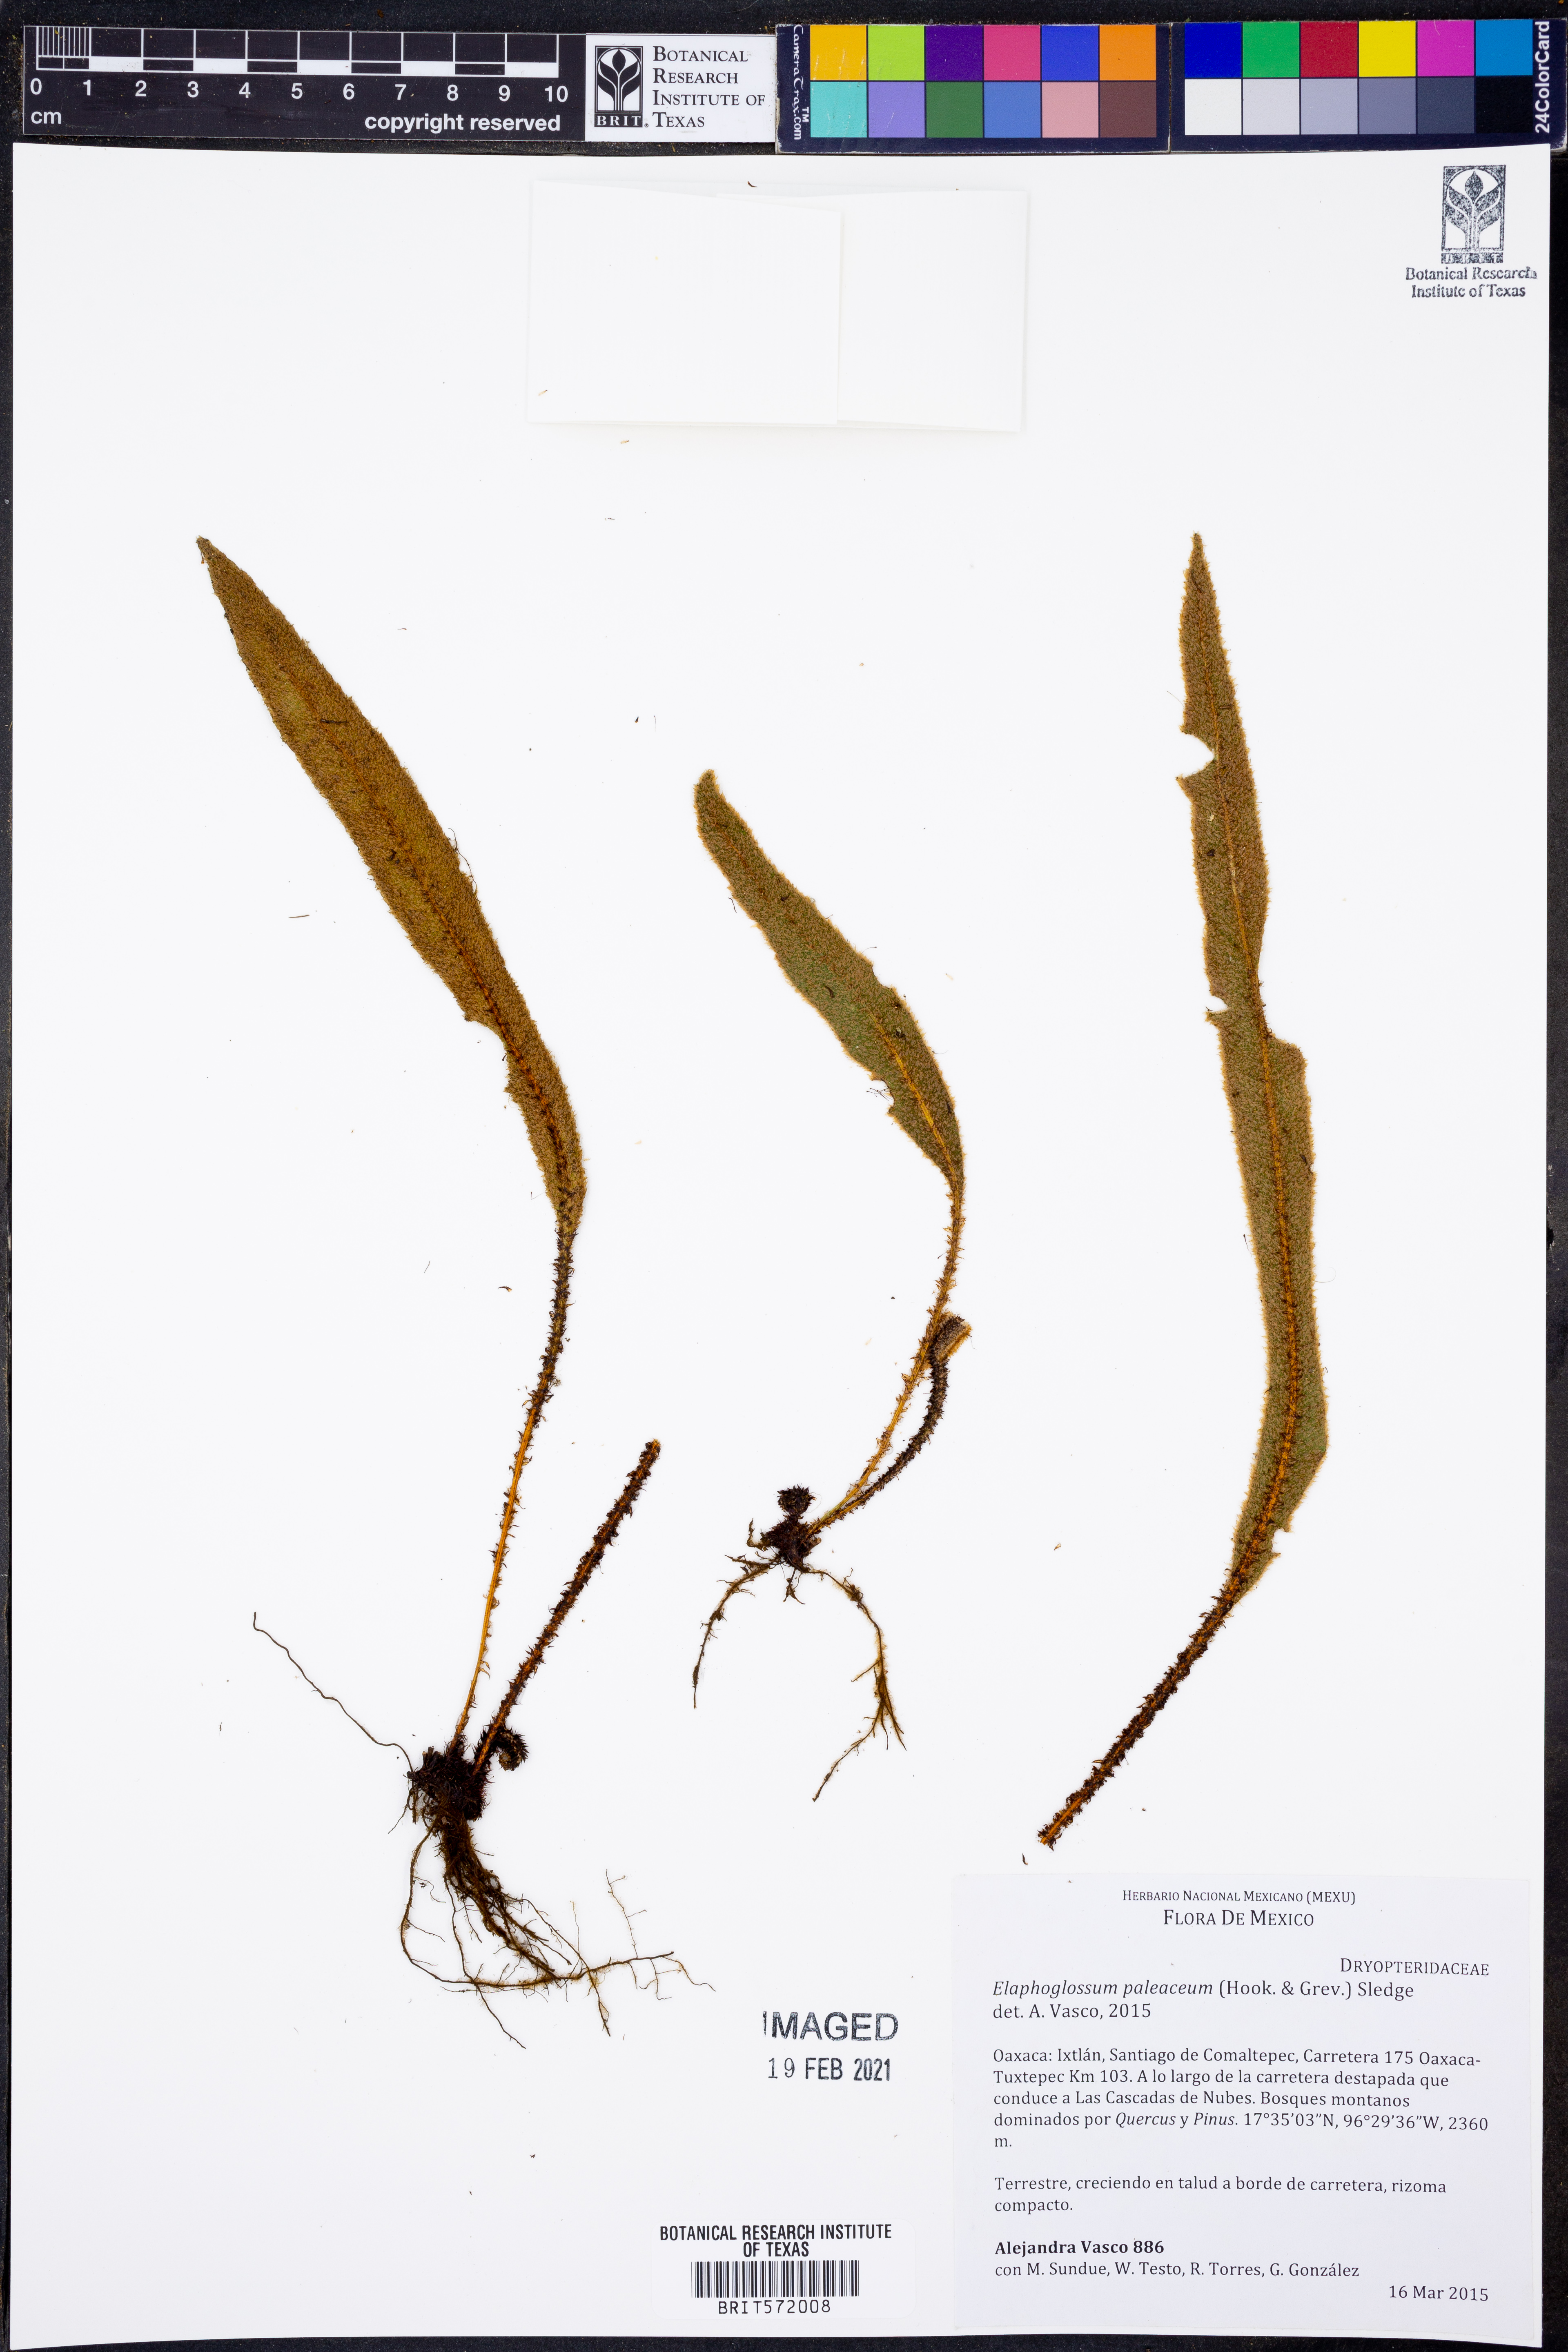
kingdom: Plantae
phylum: Tracheophyta
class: Polypodiopsida
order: Polypodiales
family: Dryopteridaceae
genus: Elaphoglossum
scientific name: Elaphoglossum paleaceum
